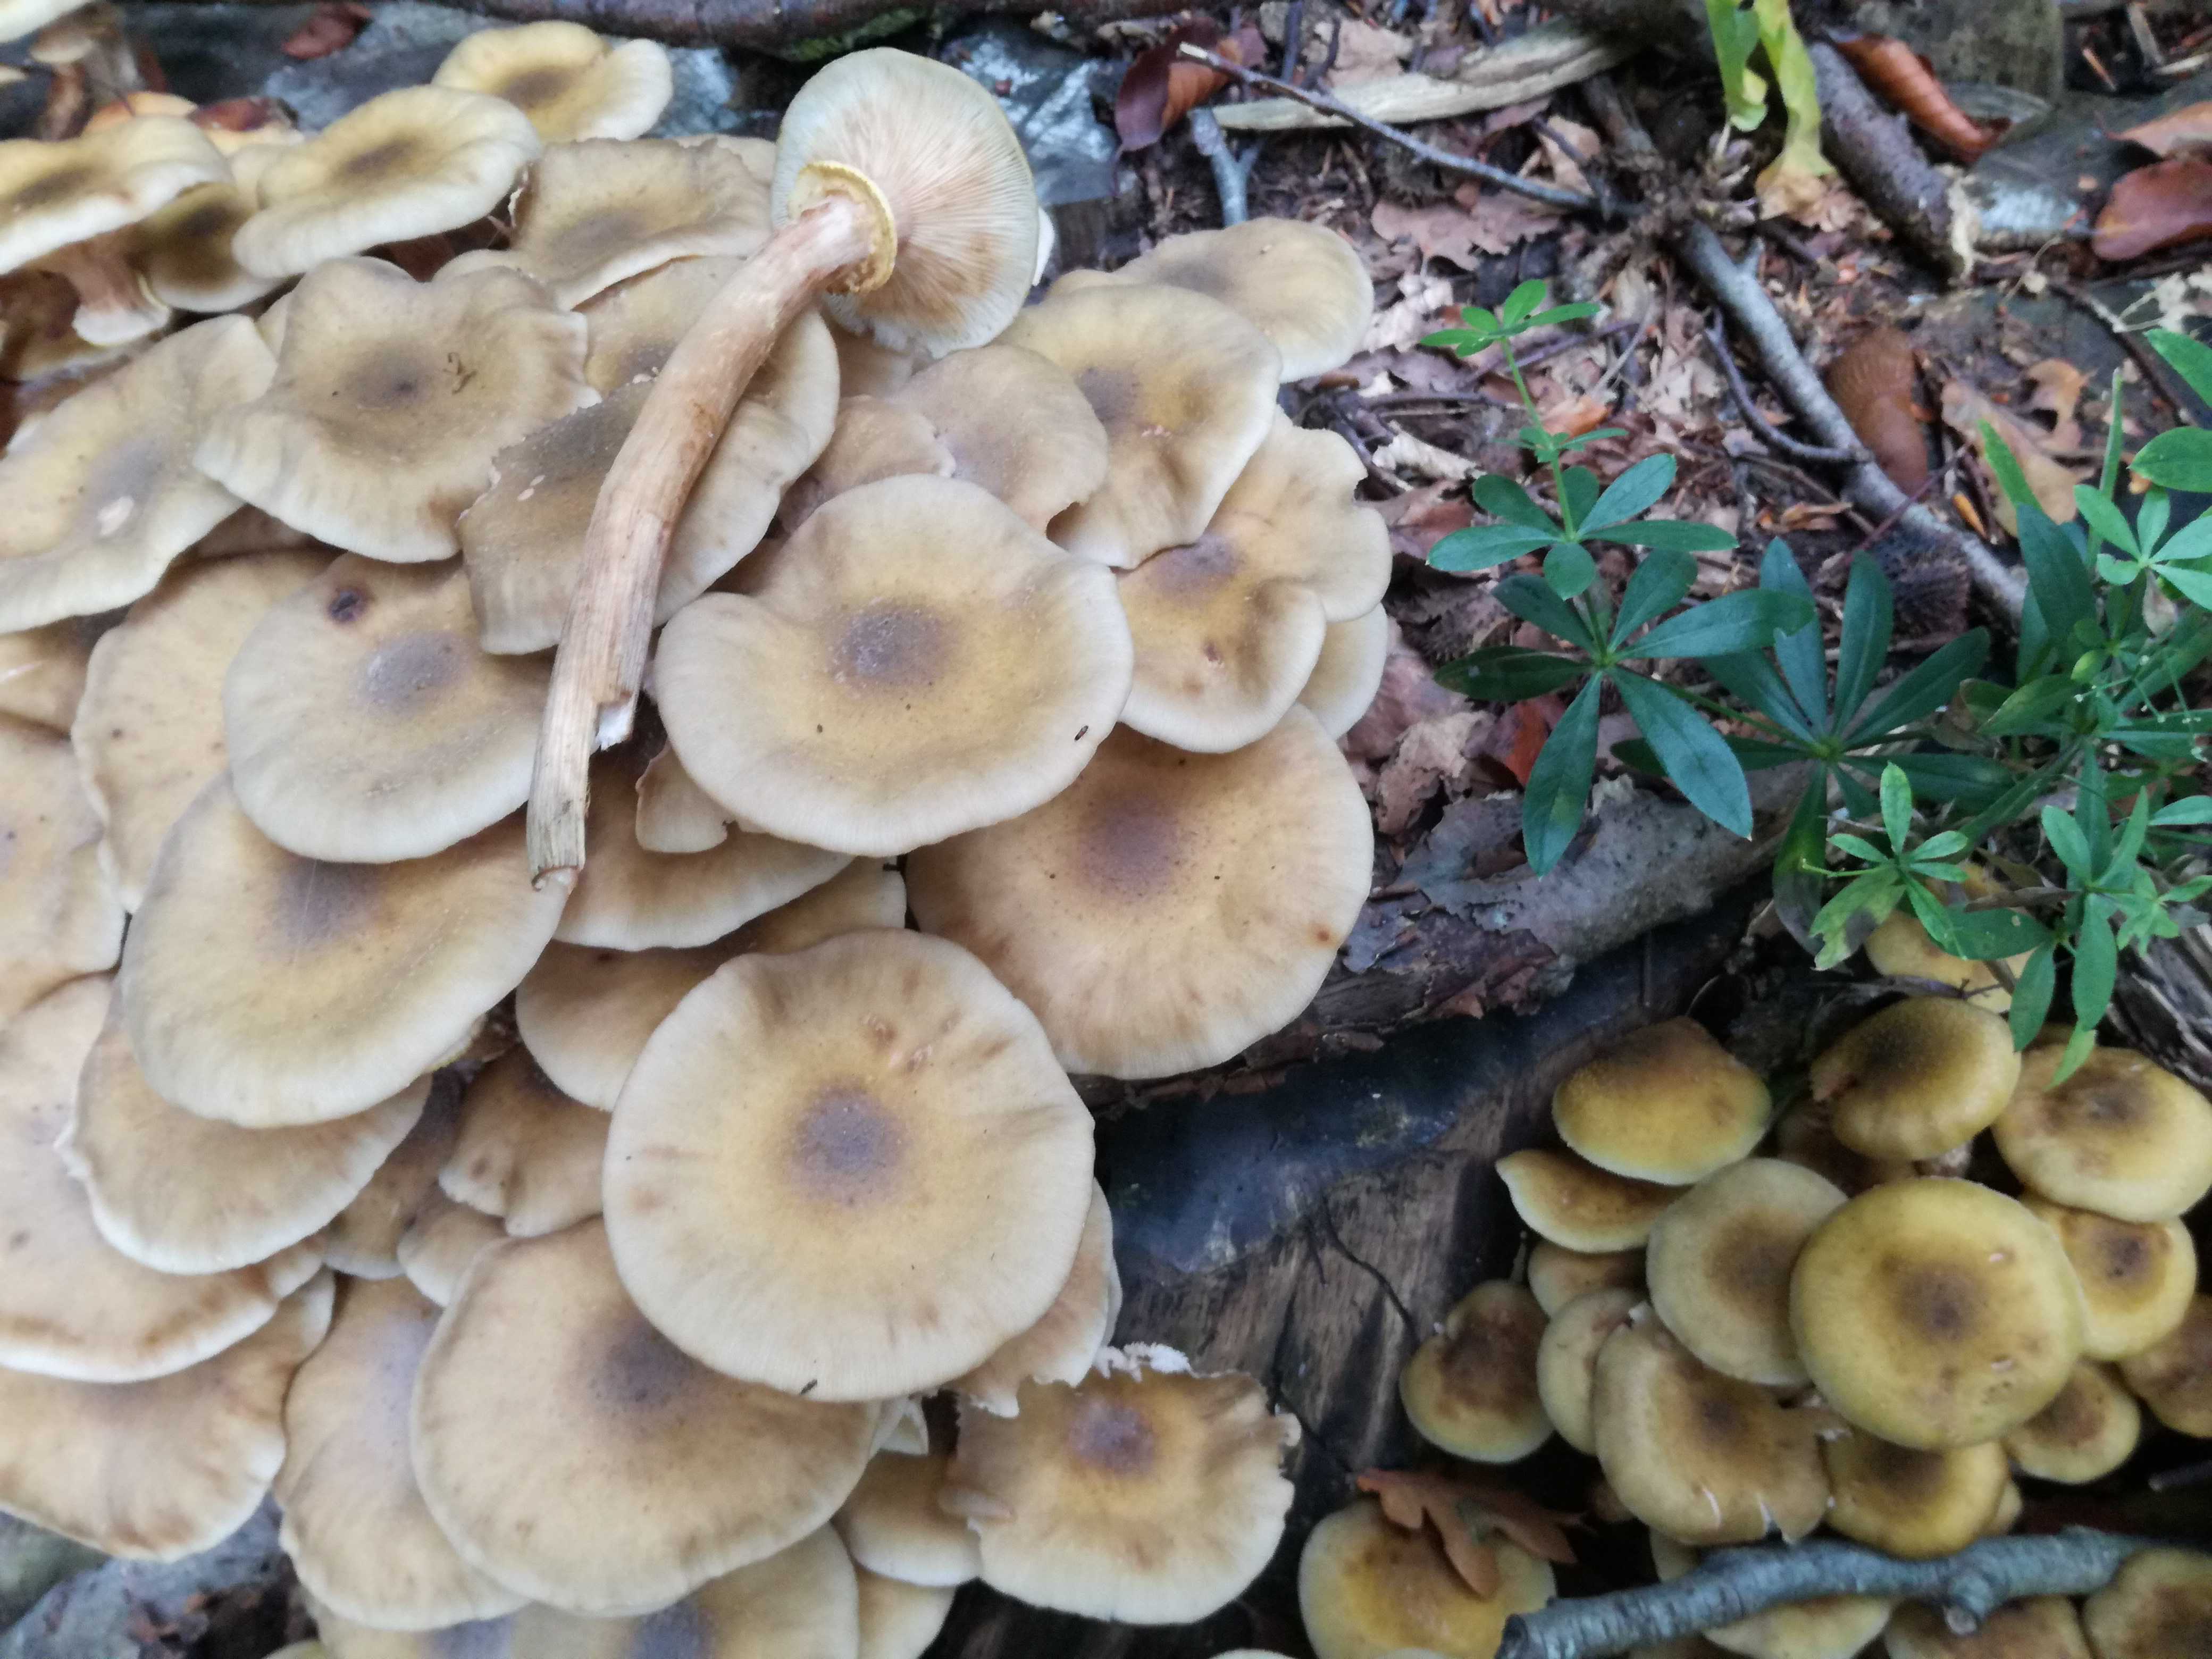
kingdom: Fungi
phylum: Basidiomycota
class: Agaricomycetes
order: Agaricales
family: Physalacriaceae
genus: Armillaria
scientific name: Armillaria mellea
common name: ægte honningsvamp
